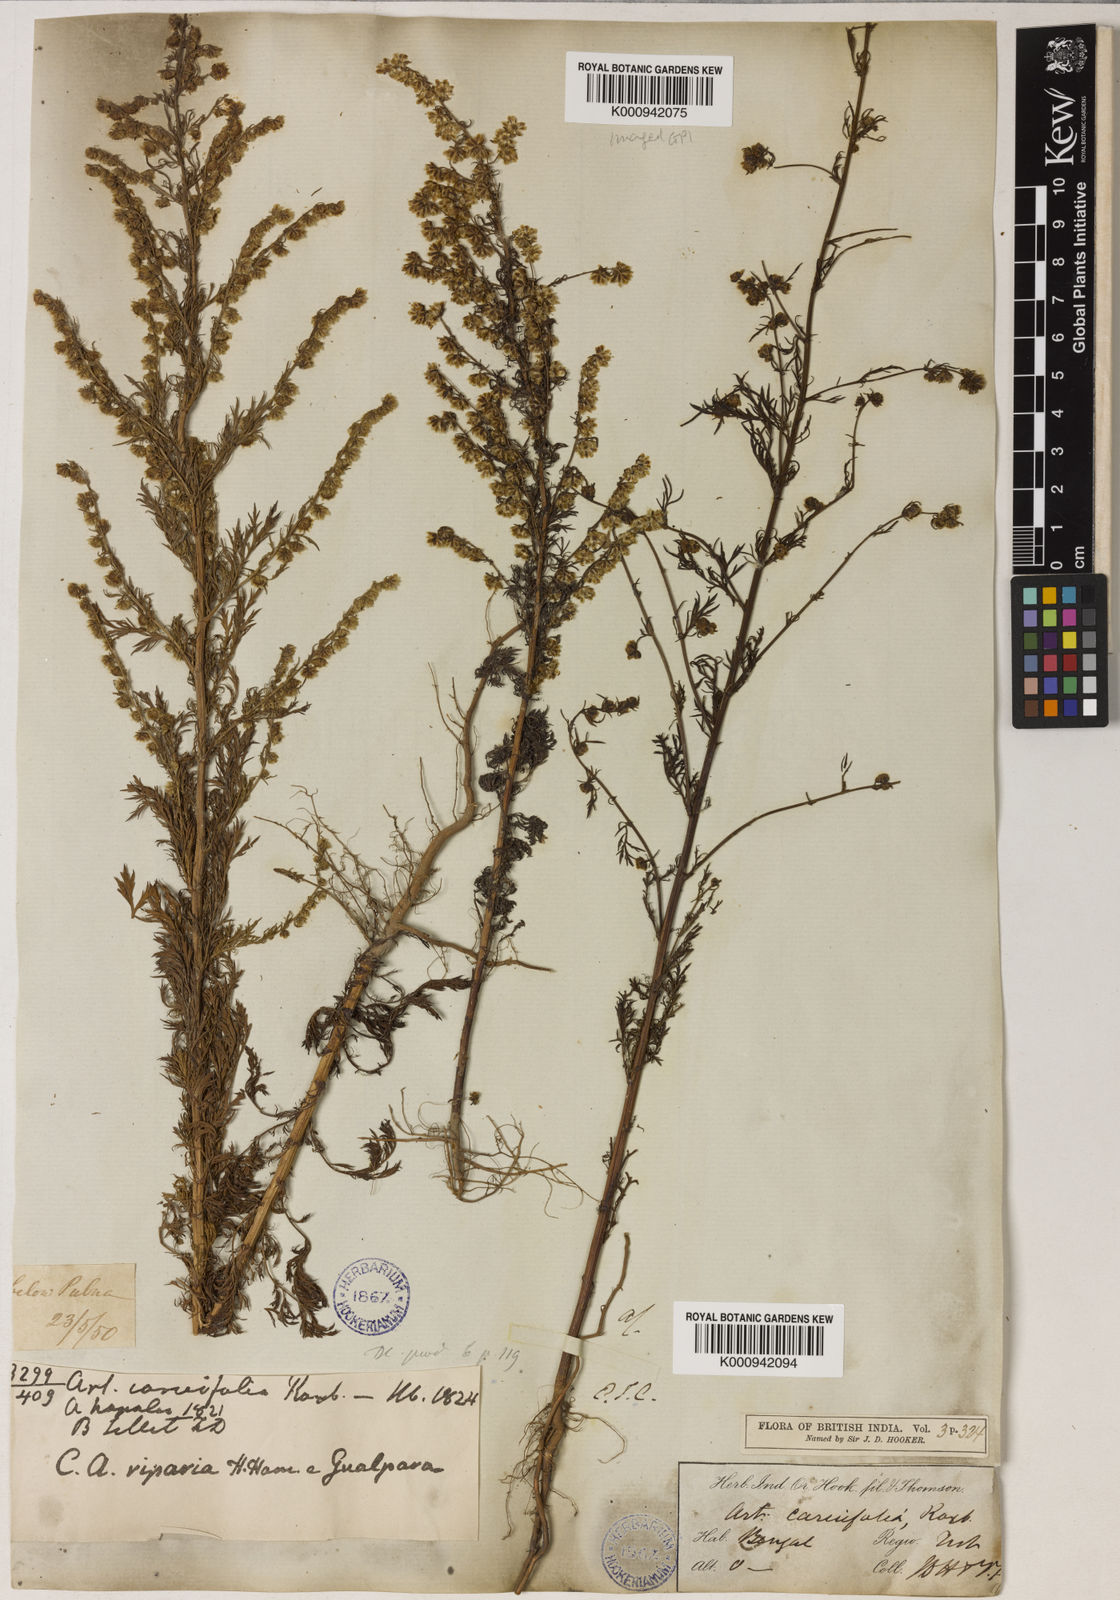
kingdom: Plantae
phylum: Tracheophyta
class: Magnoliopsida
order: Asterales
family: Asteraceae
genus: Artemisia
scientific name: Artemisia
